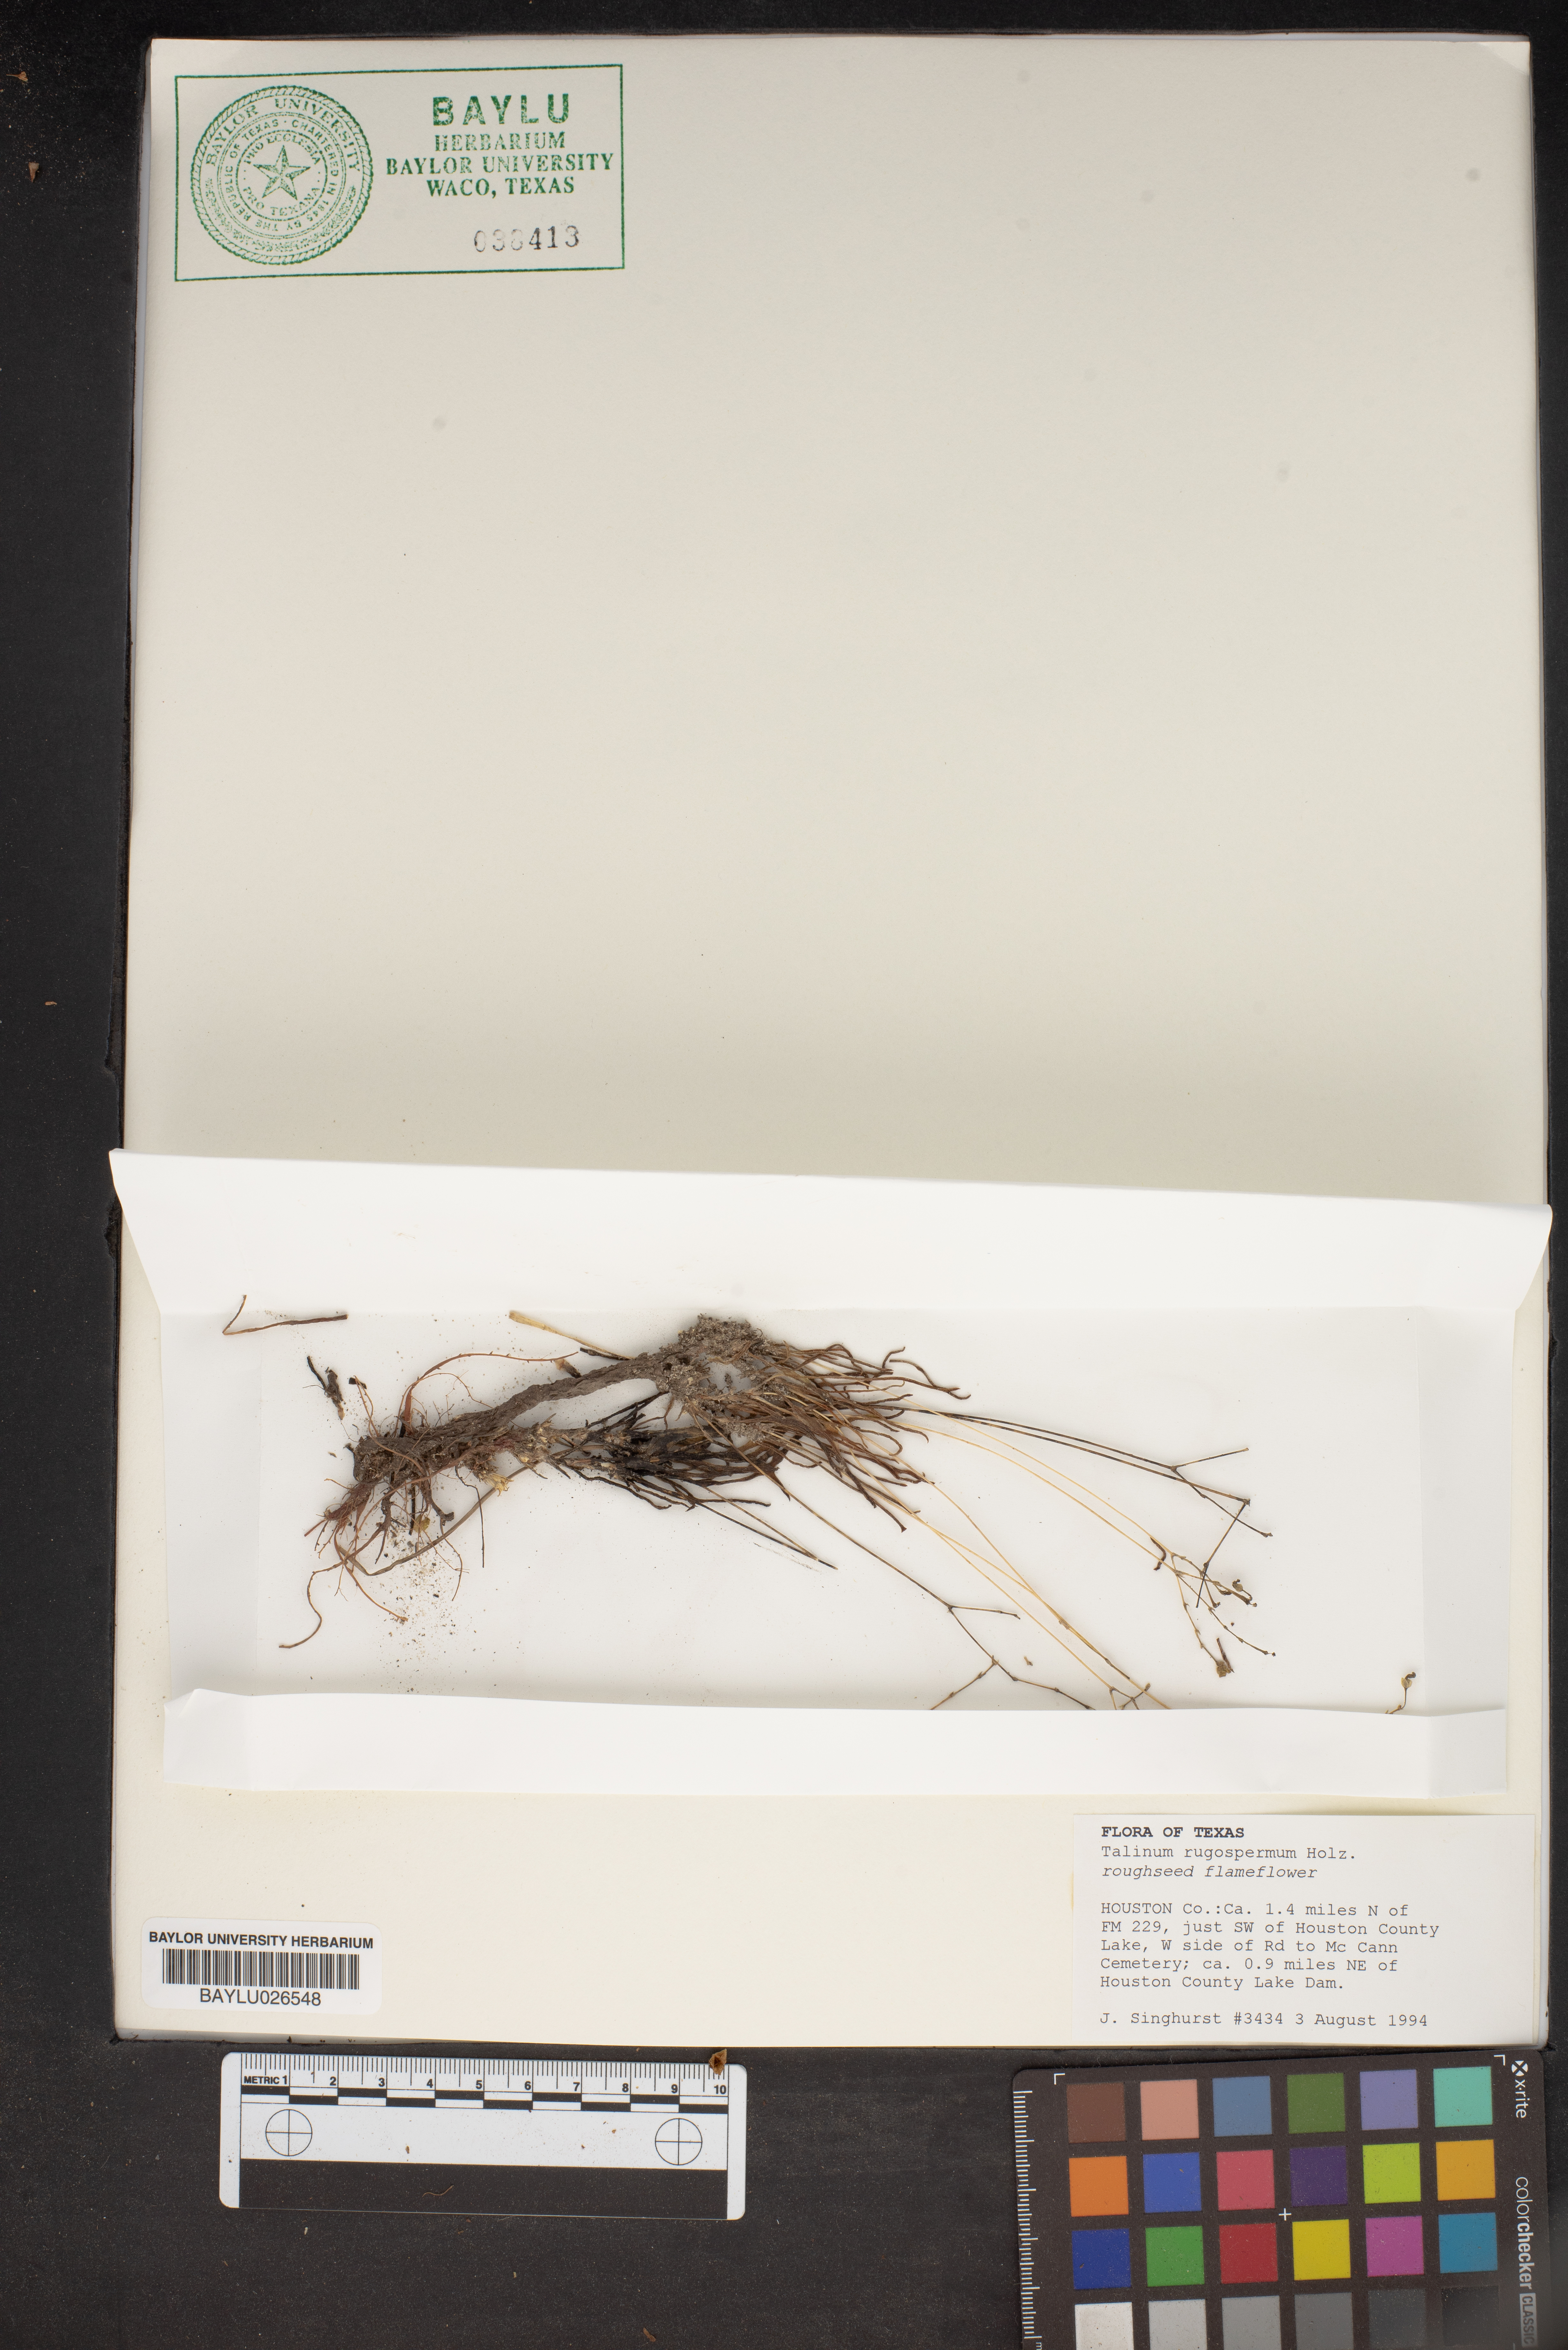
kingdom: Plantae
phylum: Tracheophyta
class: Magnoliopsida
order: Caryophyllales
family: Montiaceae
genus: Phemeranthus
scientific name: Phemeranthus rugospermus
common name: Prairie fameflower
